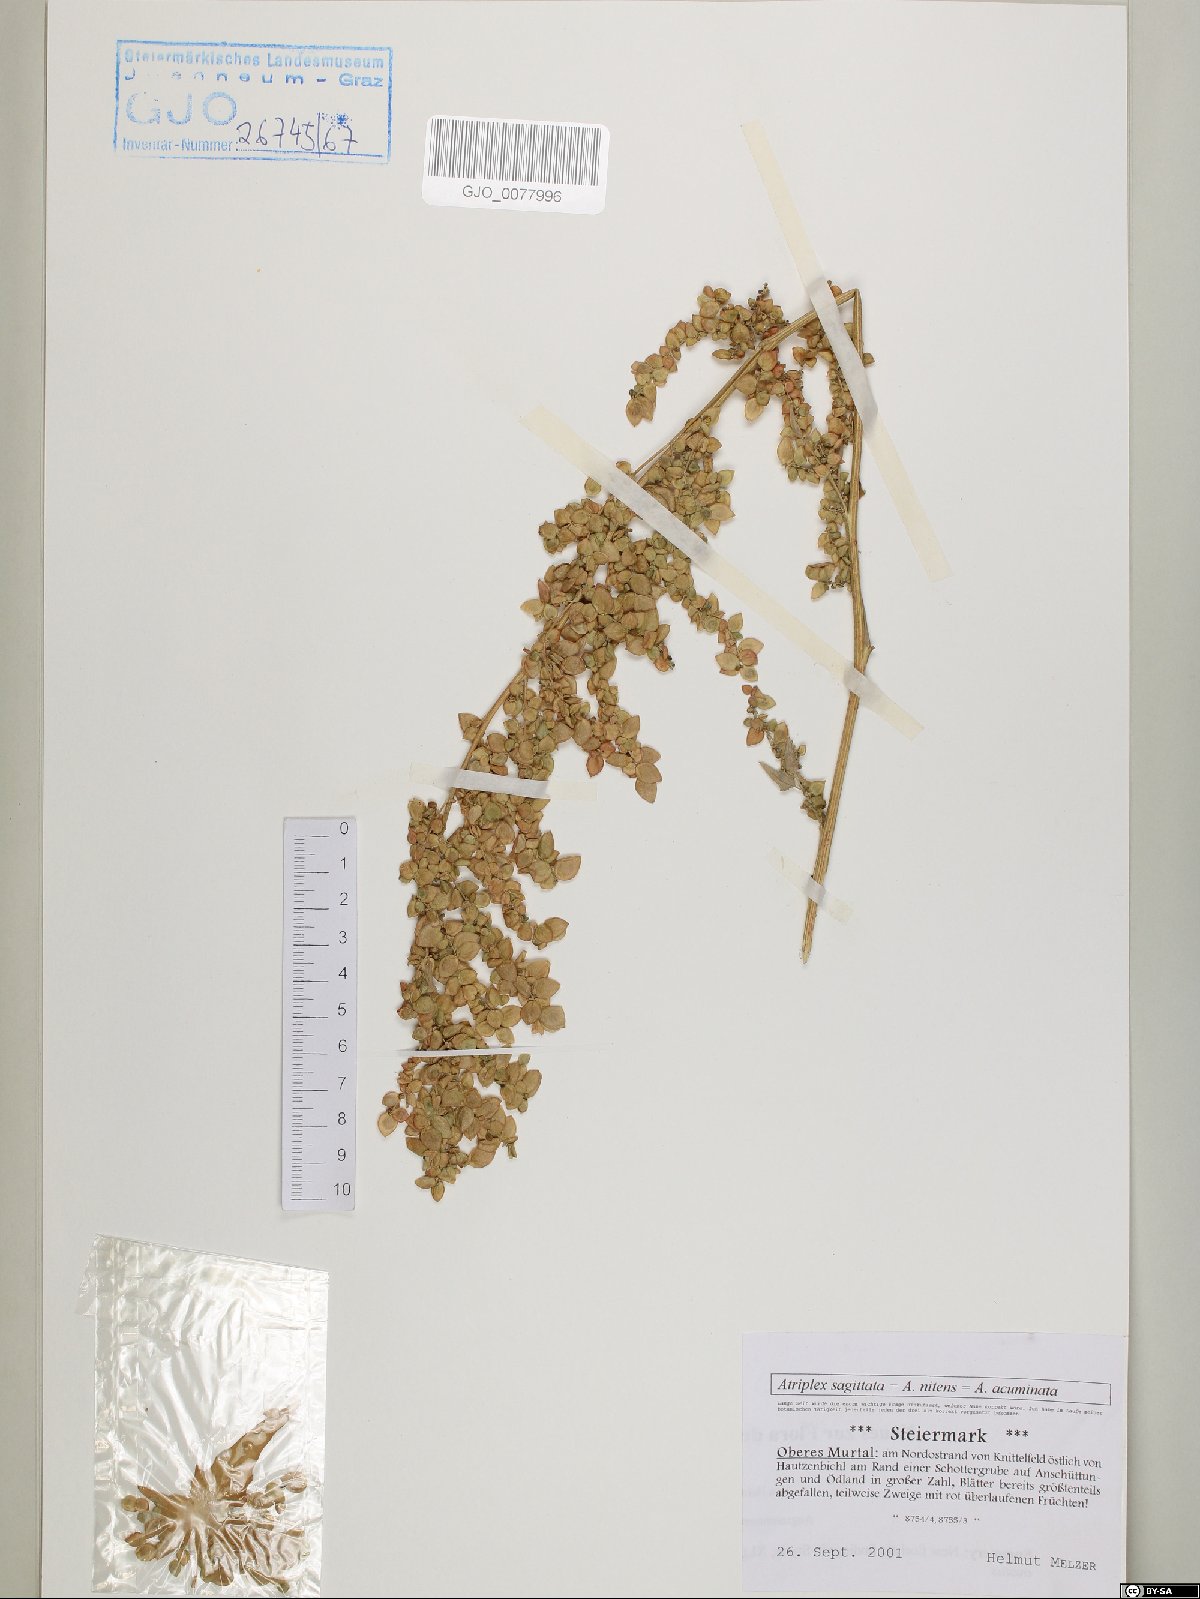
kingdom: Plantae
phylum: Tracheophyta
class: Magnoliopsida
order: Caryophyllales
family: Amaranthaceae
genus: Atriplex
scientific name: Atriplex sagittata
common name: Purple orache
